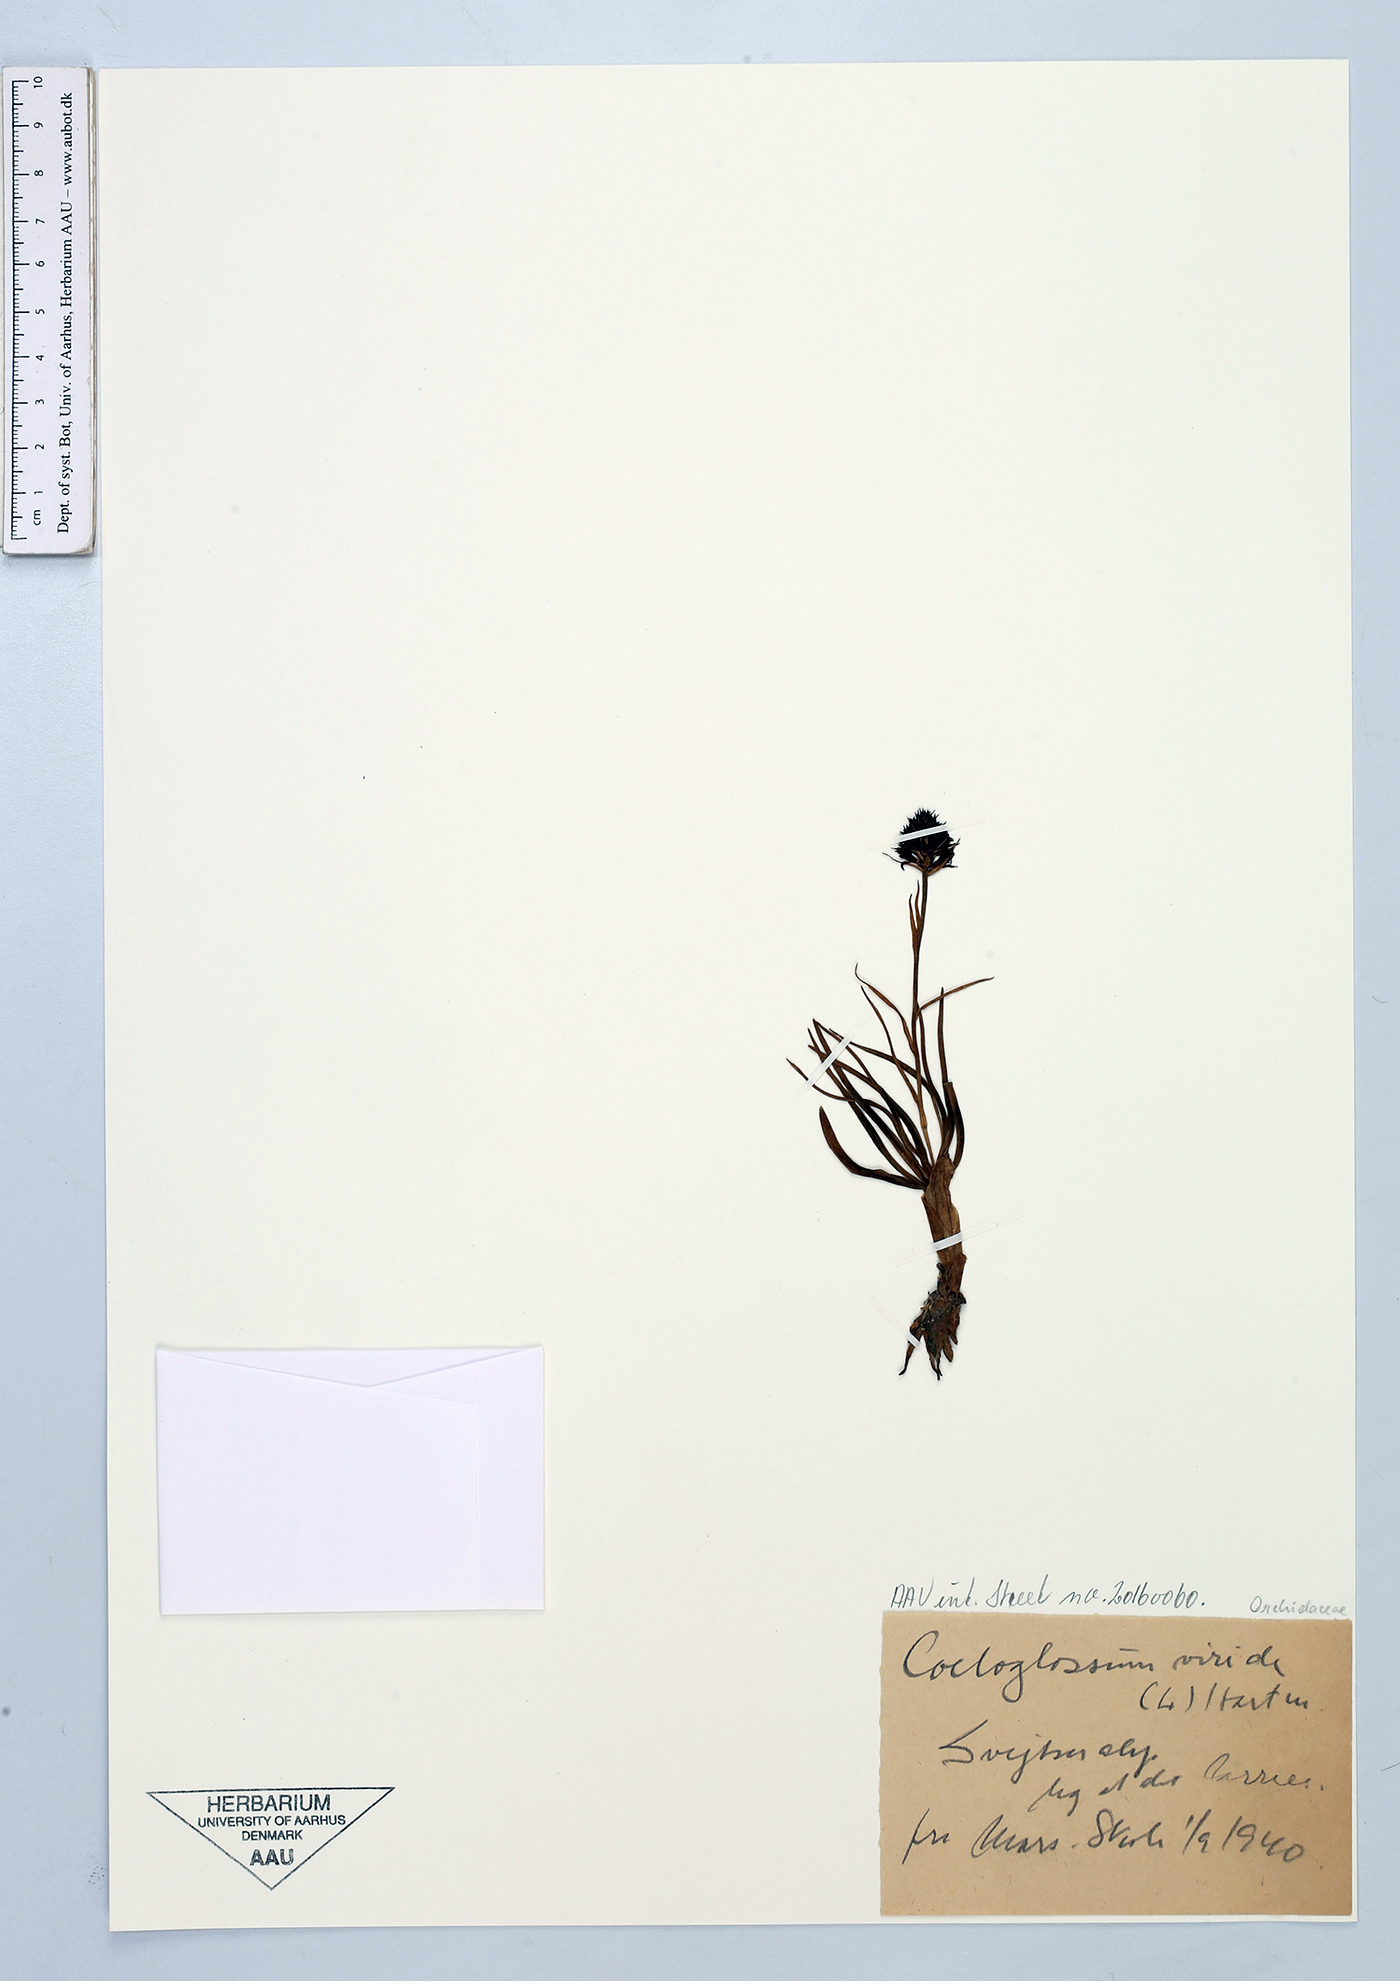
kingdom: Plantae
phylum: Tracheophyta
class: Liliopsida
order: Asparagales
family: Orchidaceae
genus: Dactylorhiza
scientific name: Dactylorhiza viridis
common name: Longbract frog orchid
